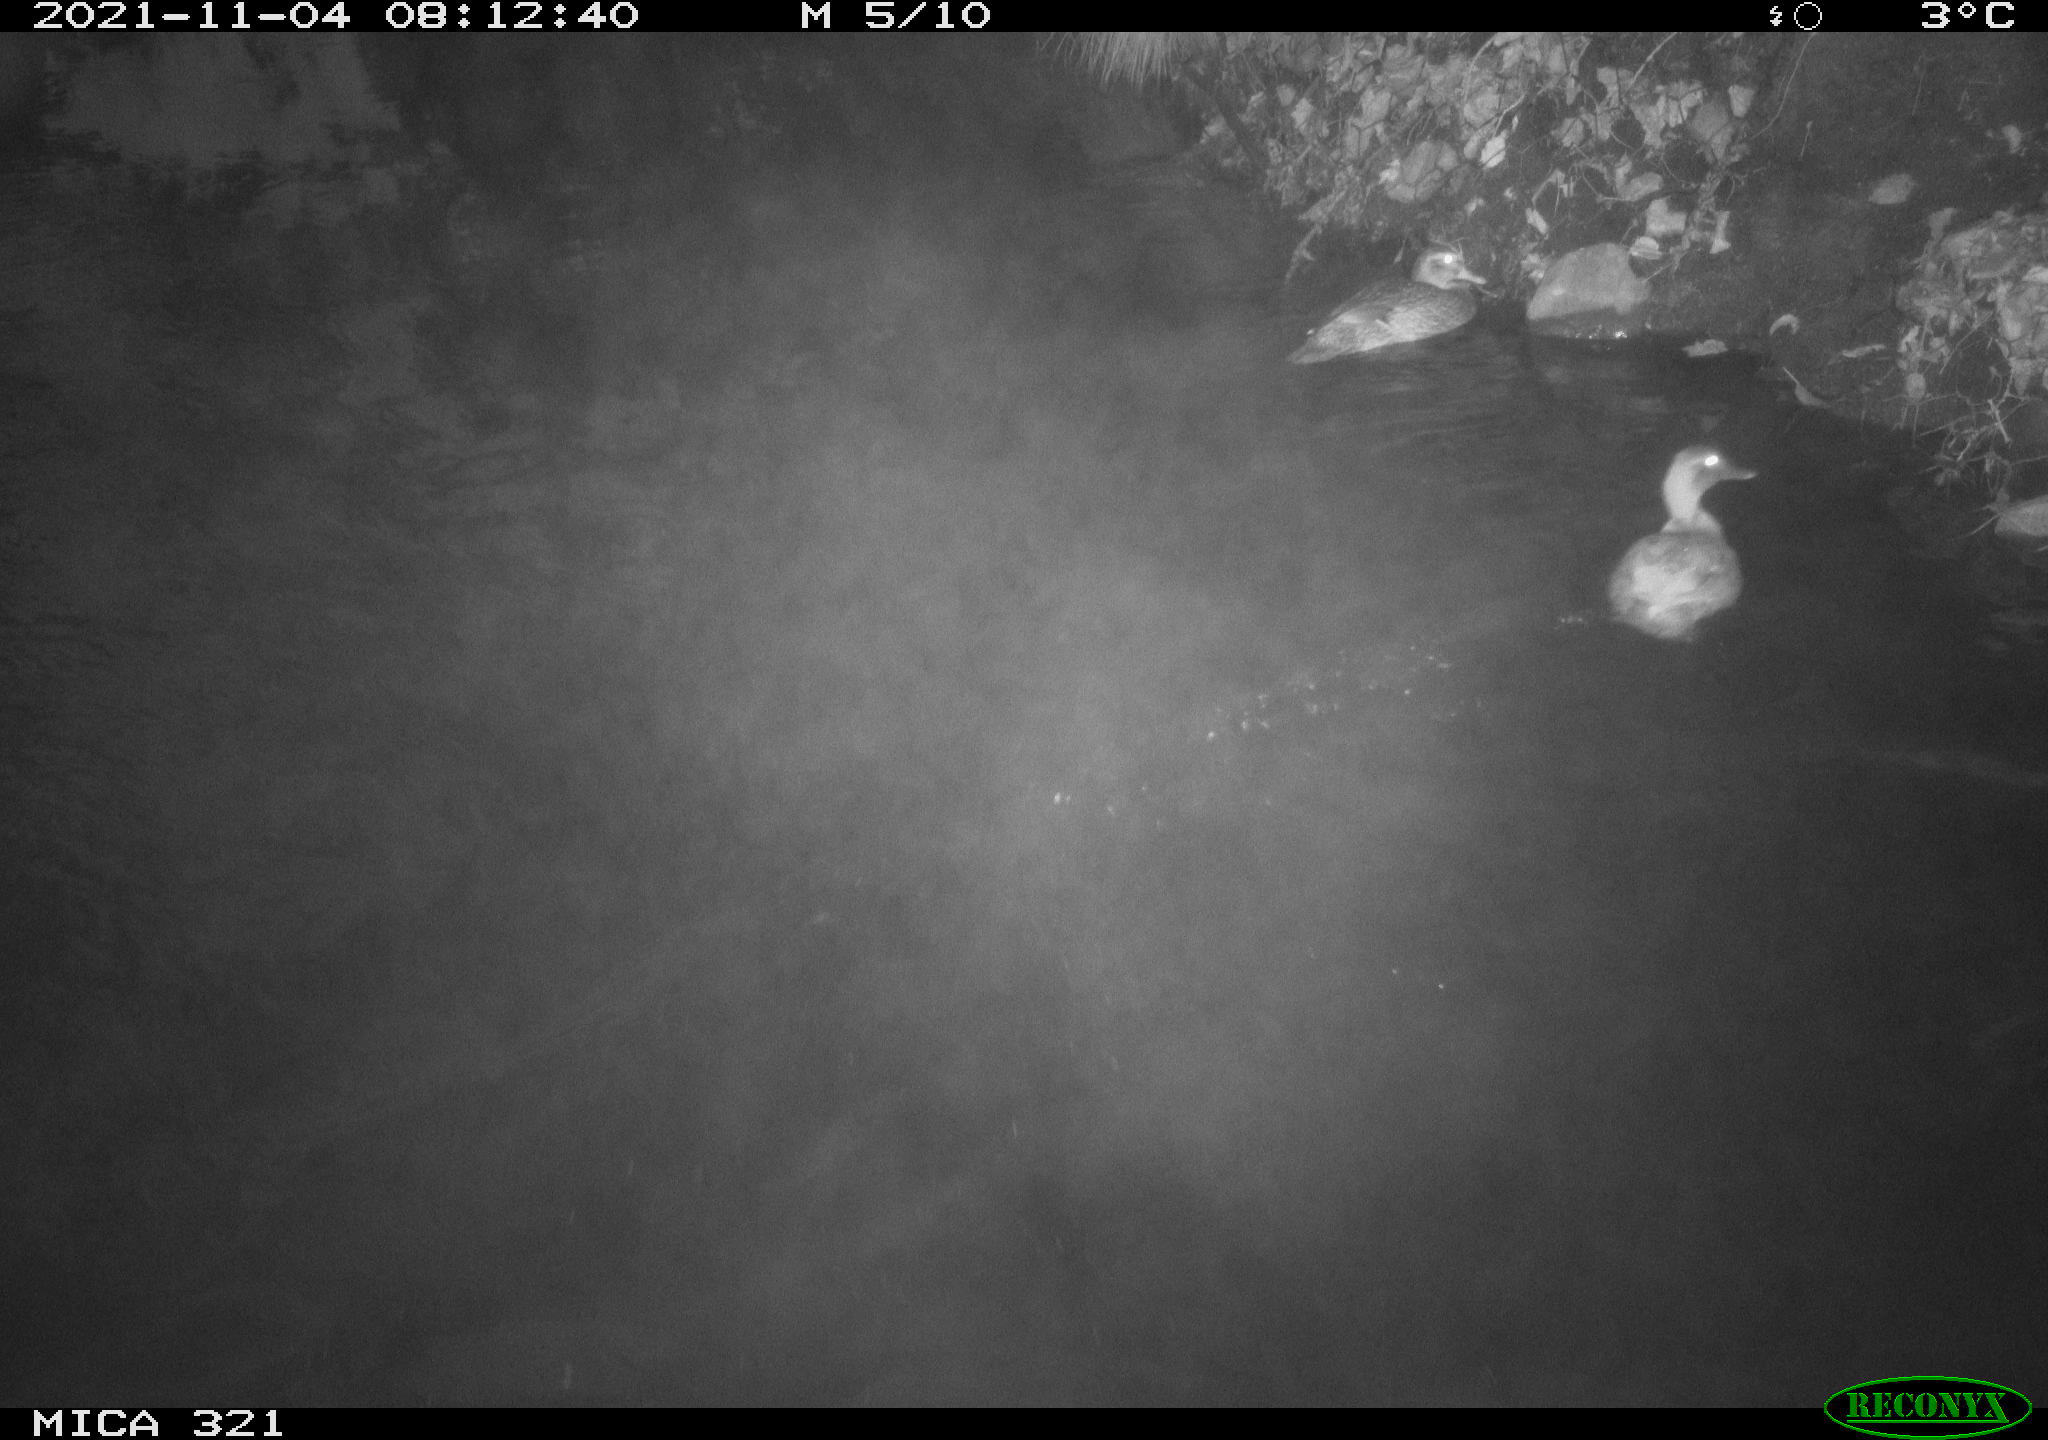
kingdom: Animalia
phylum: Chordata
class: Aves
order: Anseriformes
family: Anatidae
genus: Anas
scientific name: Anas platyrhynchos
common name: Mallard
